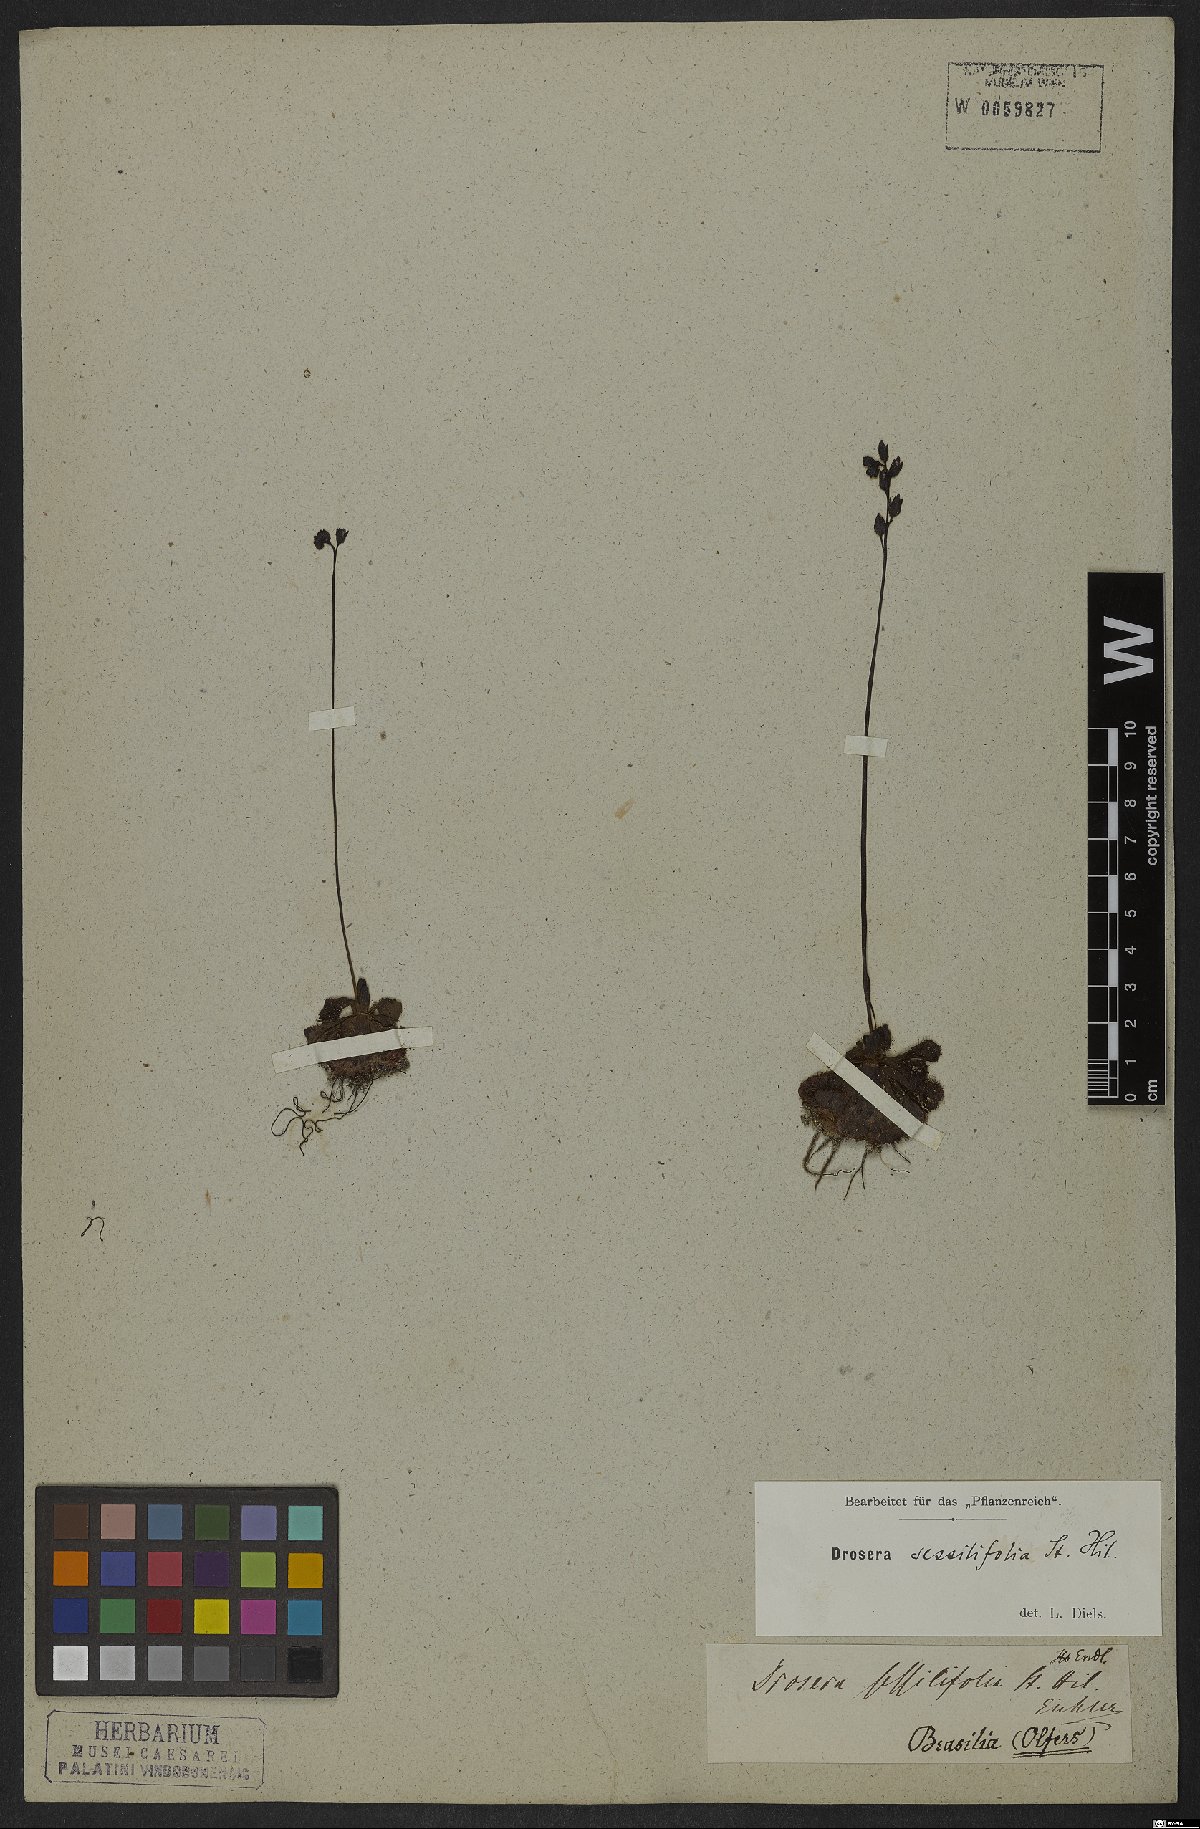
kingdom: Plantae
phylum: Tracheophyta
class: Magnoliopsida
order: Caryophyllales
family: Droseraceae
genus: Drosera
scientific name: Drosera sessilifolia
